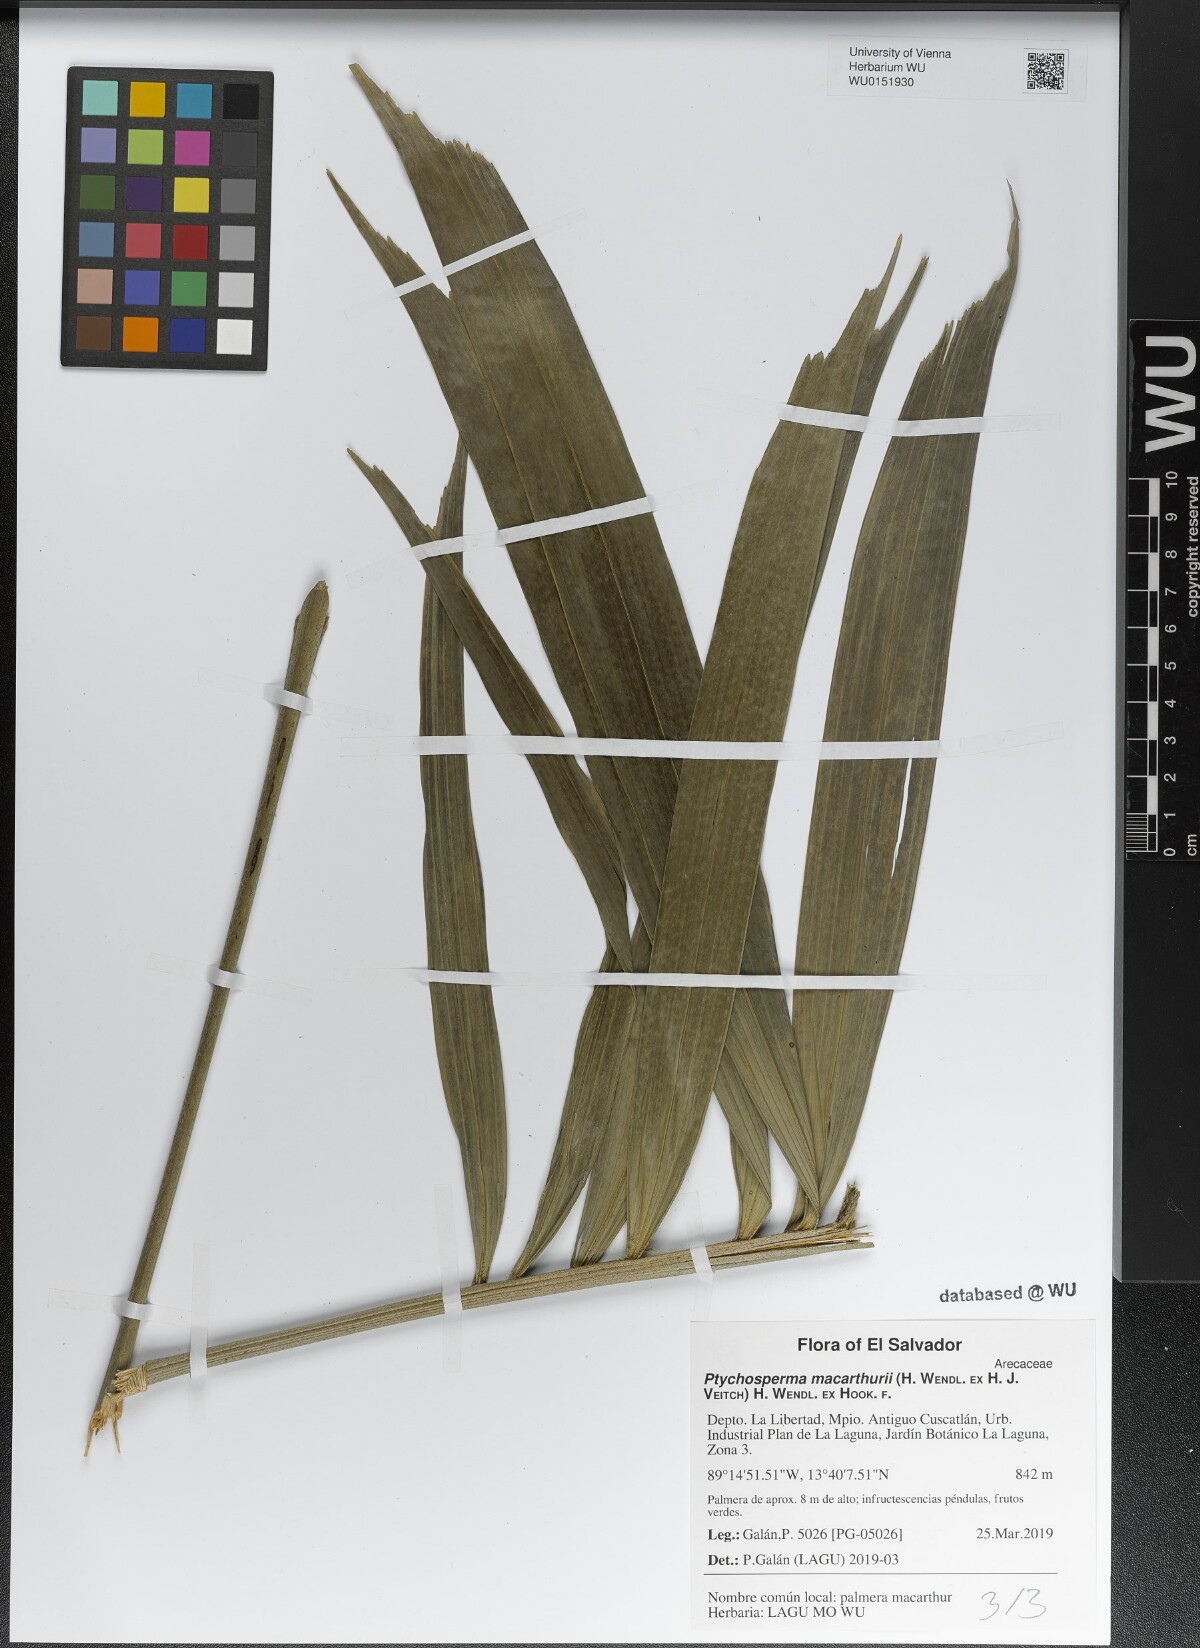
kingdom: Plantae
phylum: Tracheophyta
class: Liliopsida
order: Arecales
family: Arecaceae
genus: Ptychosperma
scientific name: Ptychosperma macarthurii
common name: Macarthur palm
